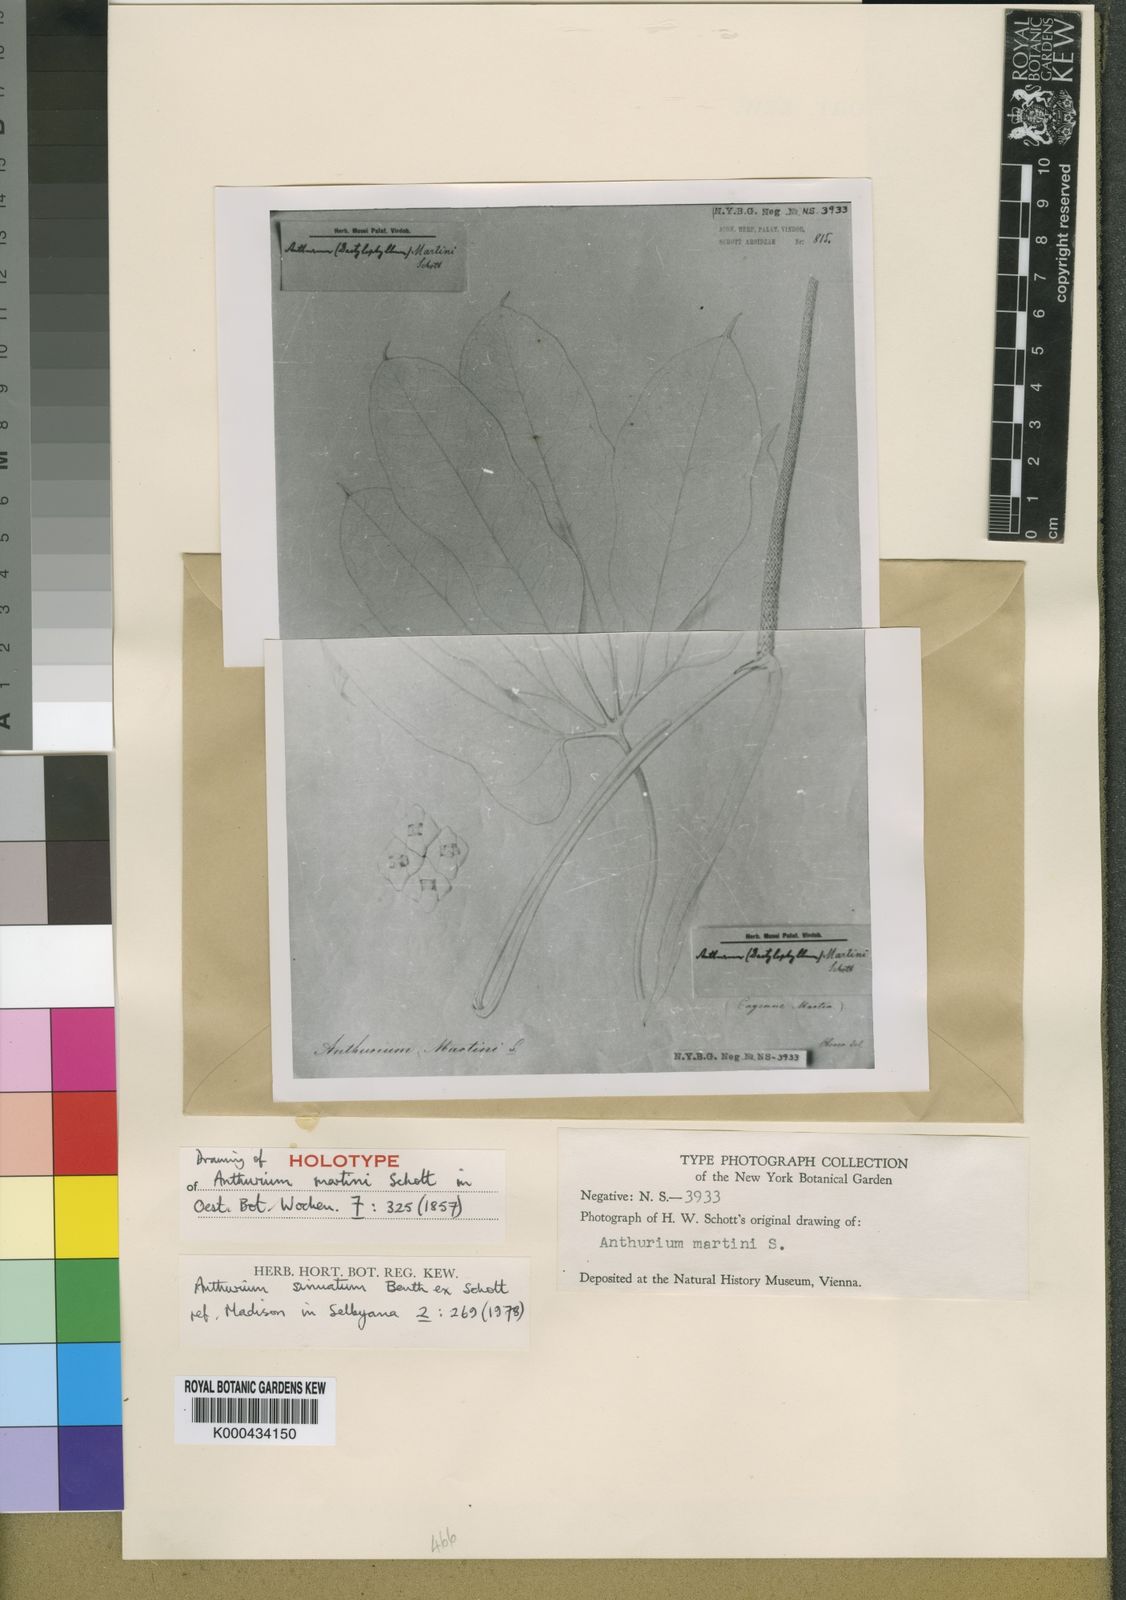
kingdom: Plantae
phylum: Tracheophyta
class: Liliopsida
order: Alismatales
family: Araceae
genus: Anthurium
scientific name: Anthurium sinuatum
